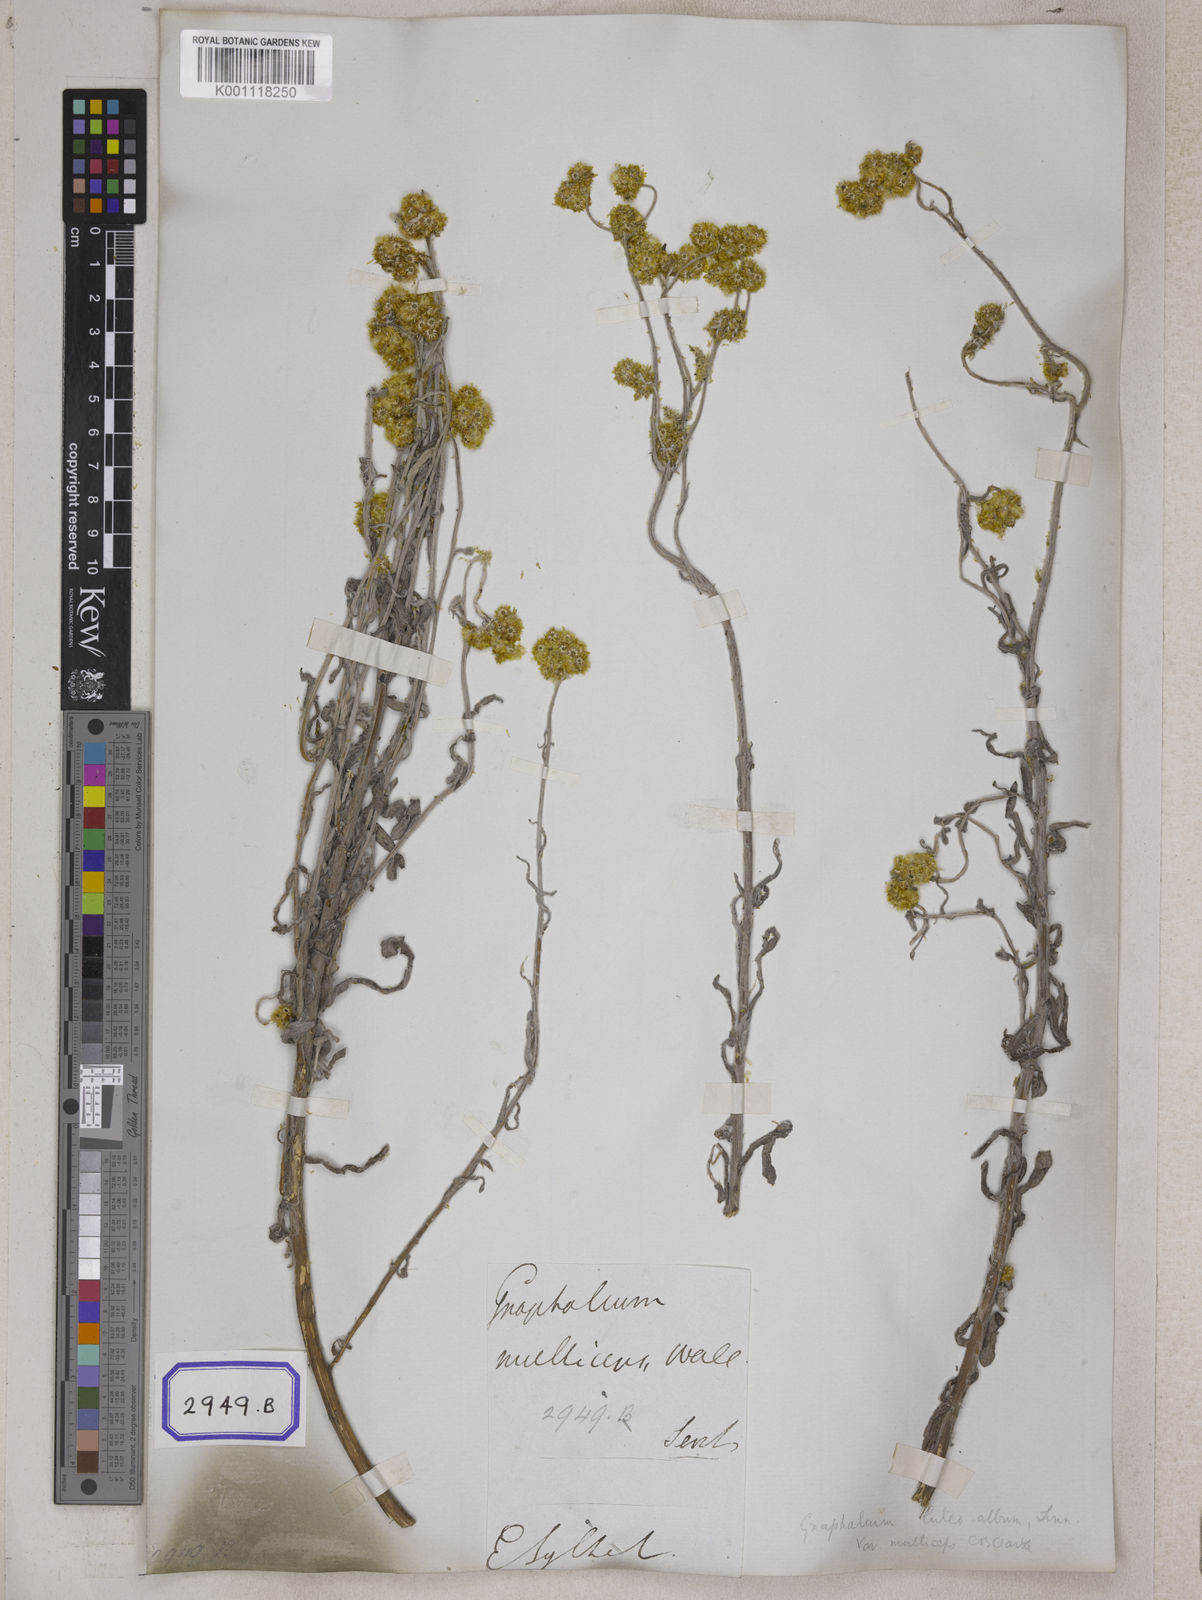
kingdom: Plantae
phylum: Tracheophyta
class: Magnoliopsida
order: Asterales
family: Asteraceae
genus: Pseudognaphalium
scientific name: Pseudognaphalium affine
